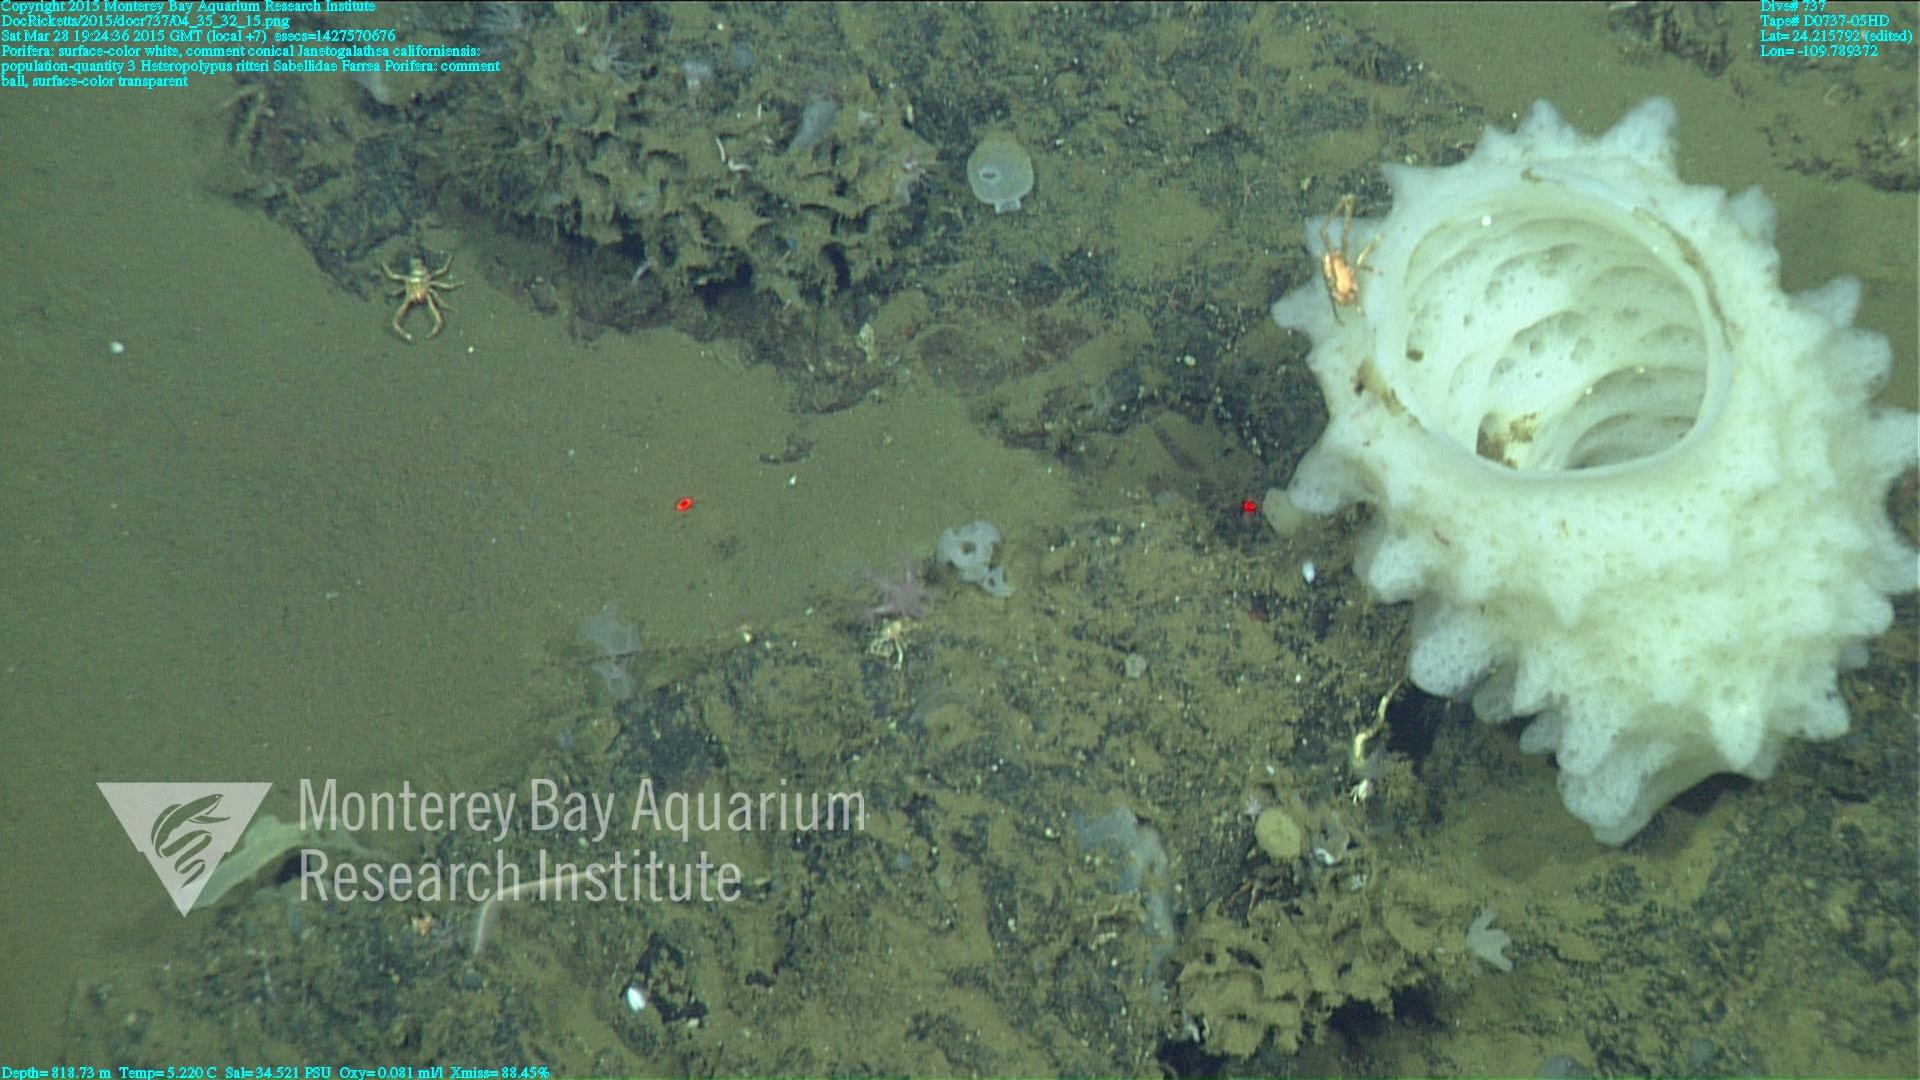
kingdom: Animalia
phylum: Cnidaria
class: Anthozoa
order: Scleralcyonacea
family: Coralliidae
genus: Heteropolypus
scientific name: Heteropolypus ritteri
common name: Ritter's soft coral
